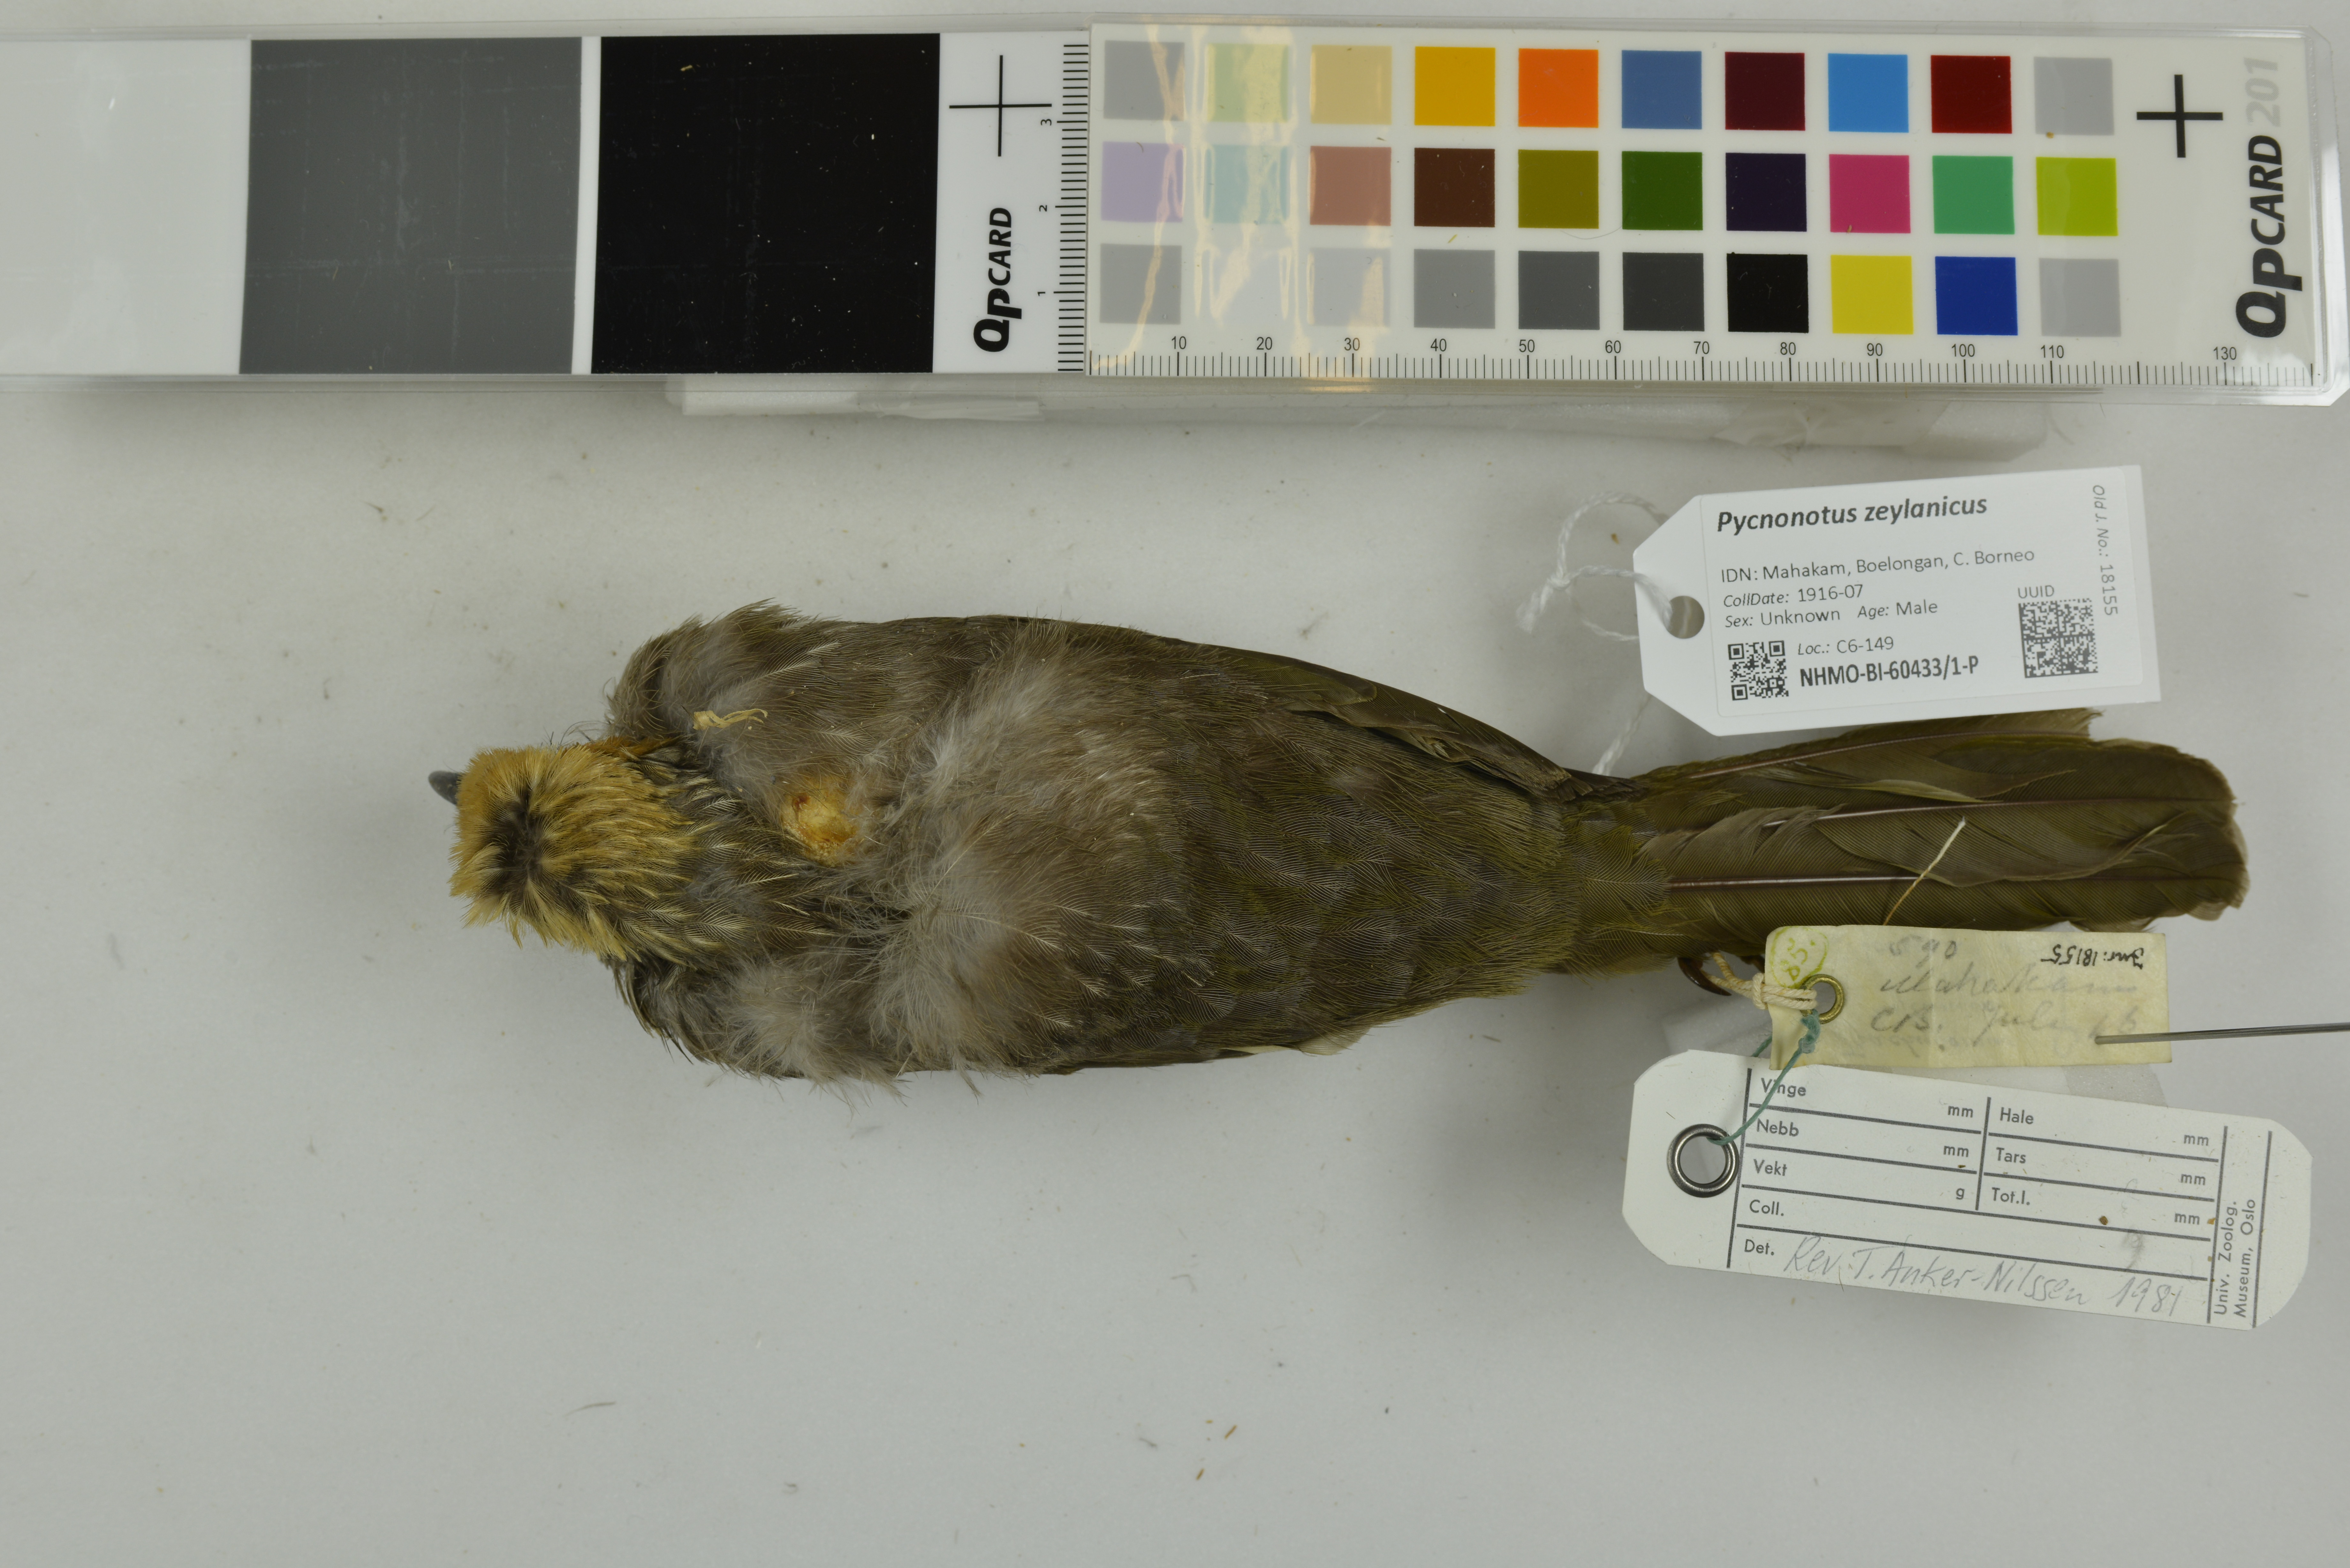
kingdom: Animalia
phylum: Chordata
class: Aves
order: Passeriformes
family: Pycnonotidae
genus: Pycnonotus
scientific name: Pycnonotus zeylanicus
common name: Straw-headed bulbul
